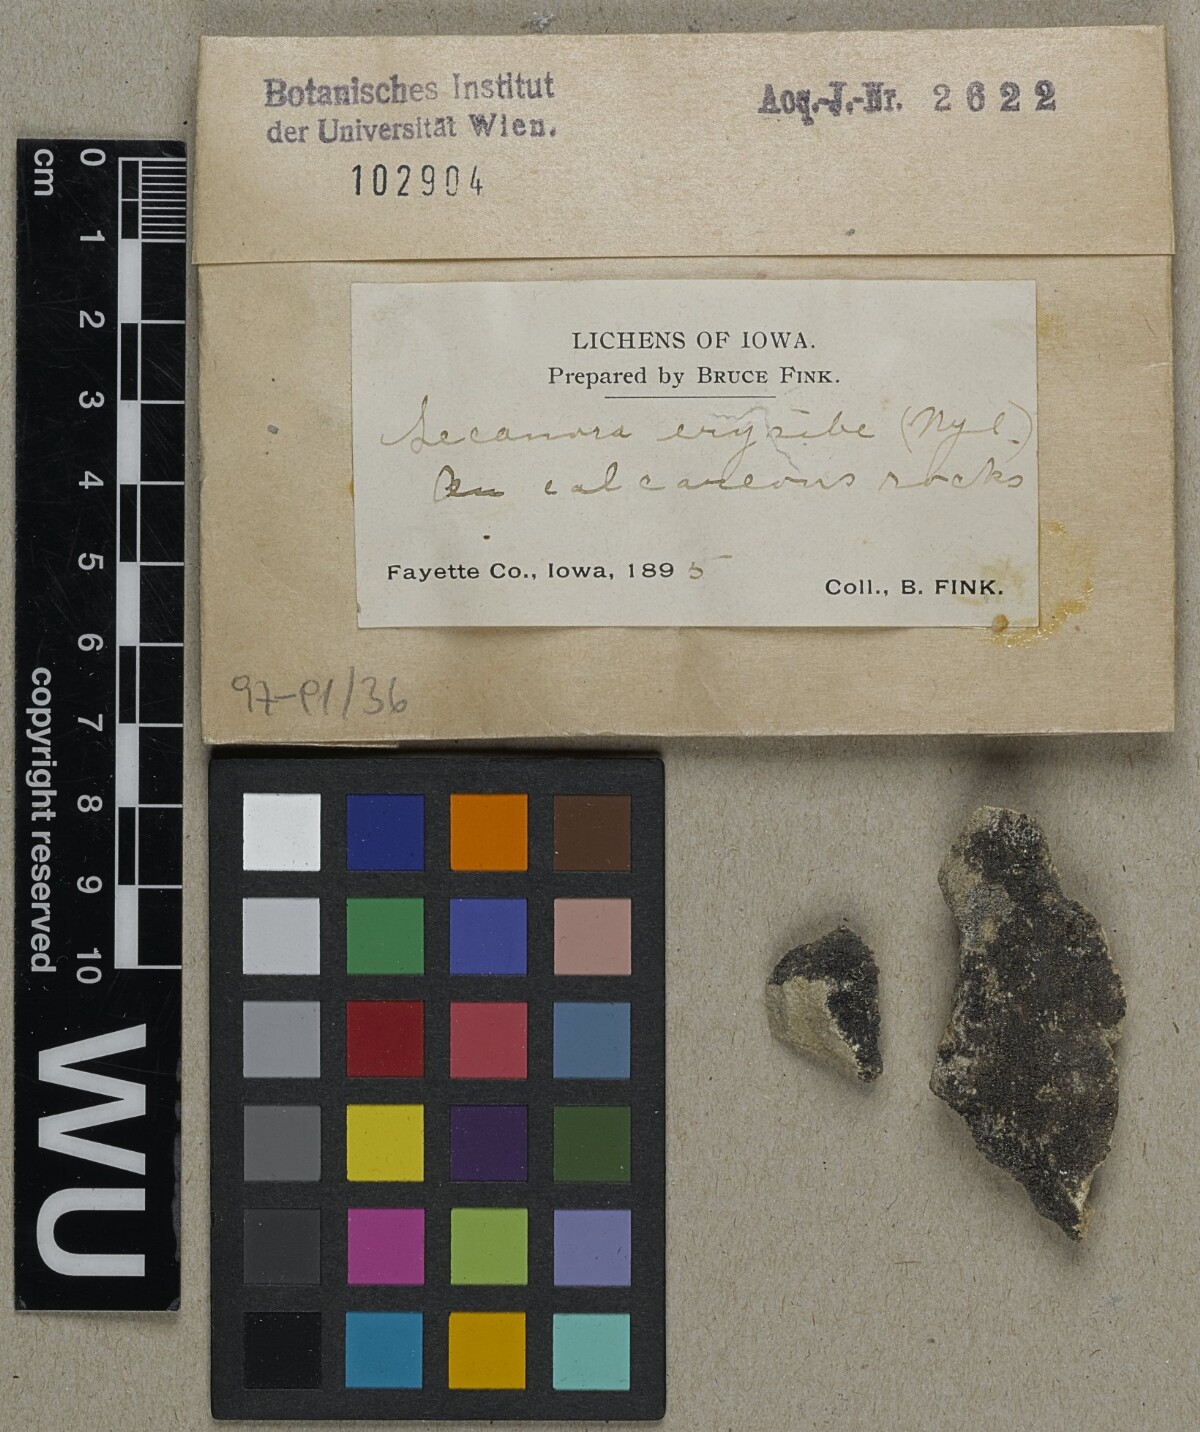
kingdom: Fungi
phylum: Ascomycota
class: Lecanoromycetes
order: Lecanorales
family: Ramalinaceae
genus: Lecania
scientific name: Lecania erysibe
